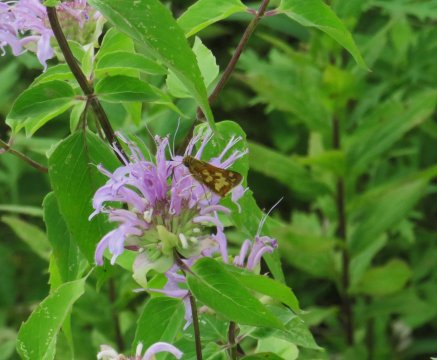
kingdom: Animalia
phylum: Arthropoda
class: Insecta
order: Lepidoptera
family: Hesperiidae
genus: Polites
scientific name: Polites coras
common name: Peck's Skipper
